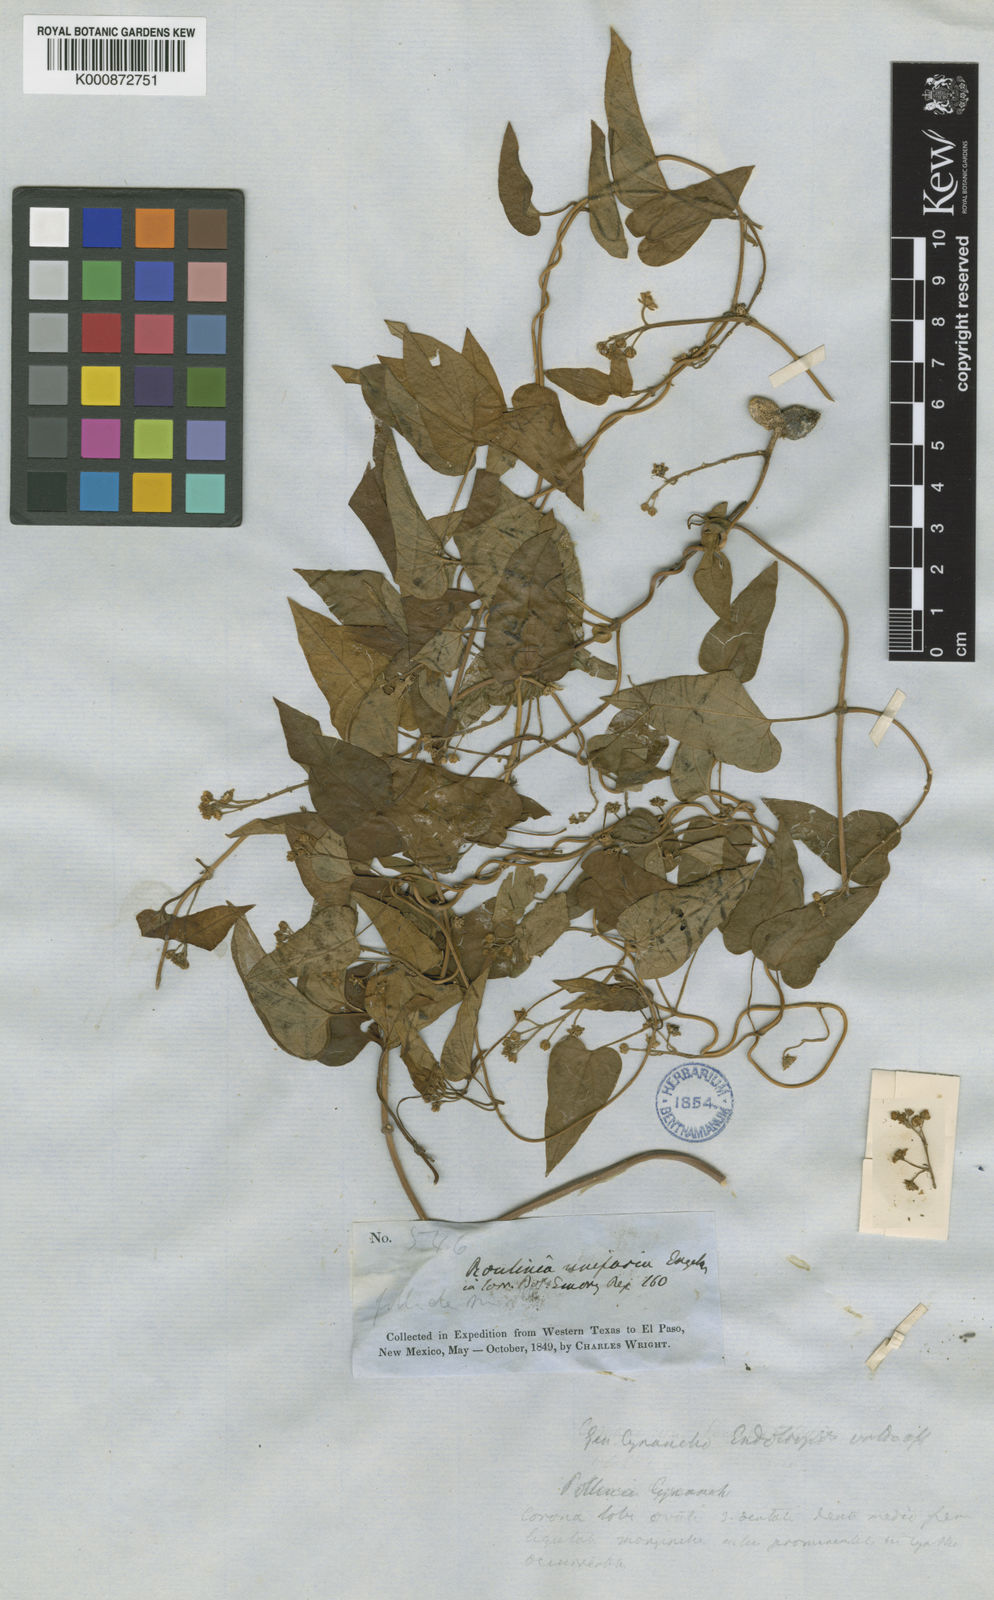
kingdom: Plantae
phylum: Tracheophyta
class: Magnoliopsida
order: Gentianales
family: Apocynaceae
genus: Cynanchum
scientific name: Cynanchum racemosum
